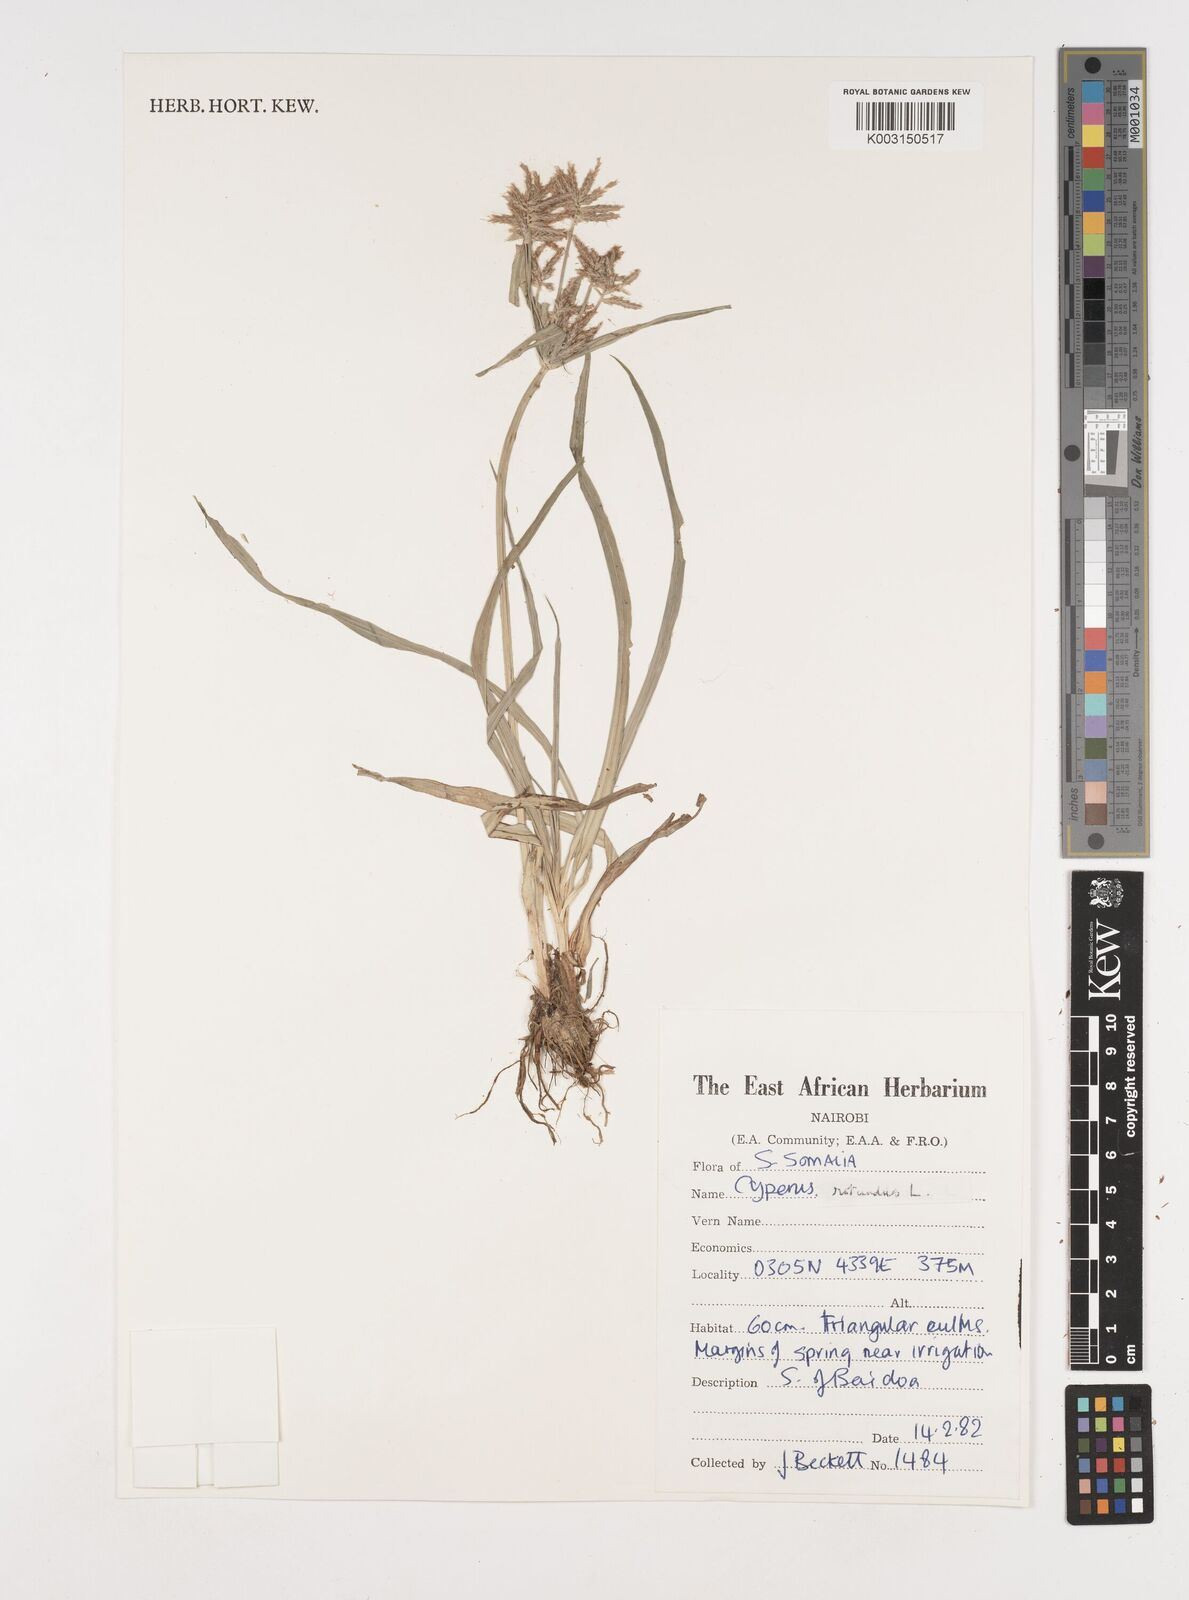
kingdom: Plantae
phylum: Tracheophyta
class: Liliopsida
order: Poales
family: Cyperaceae
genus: Cyperus
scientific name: Cyperus rotundus
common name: Nutgrass
